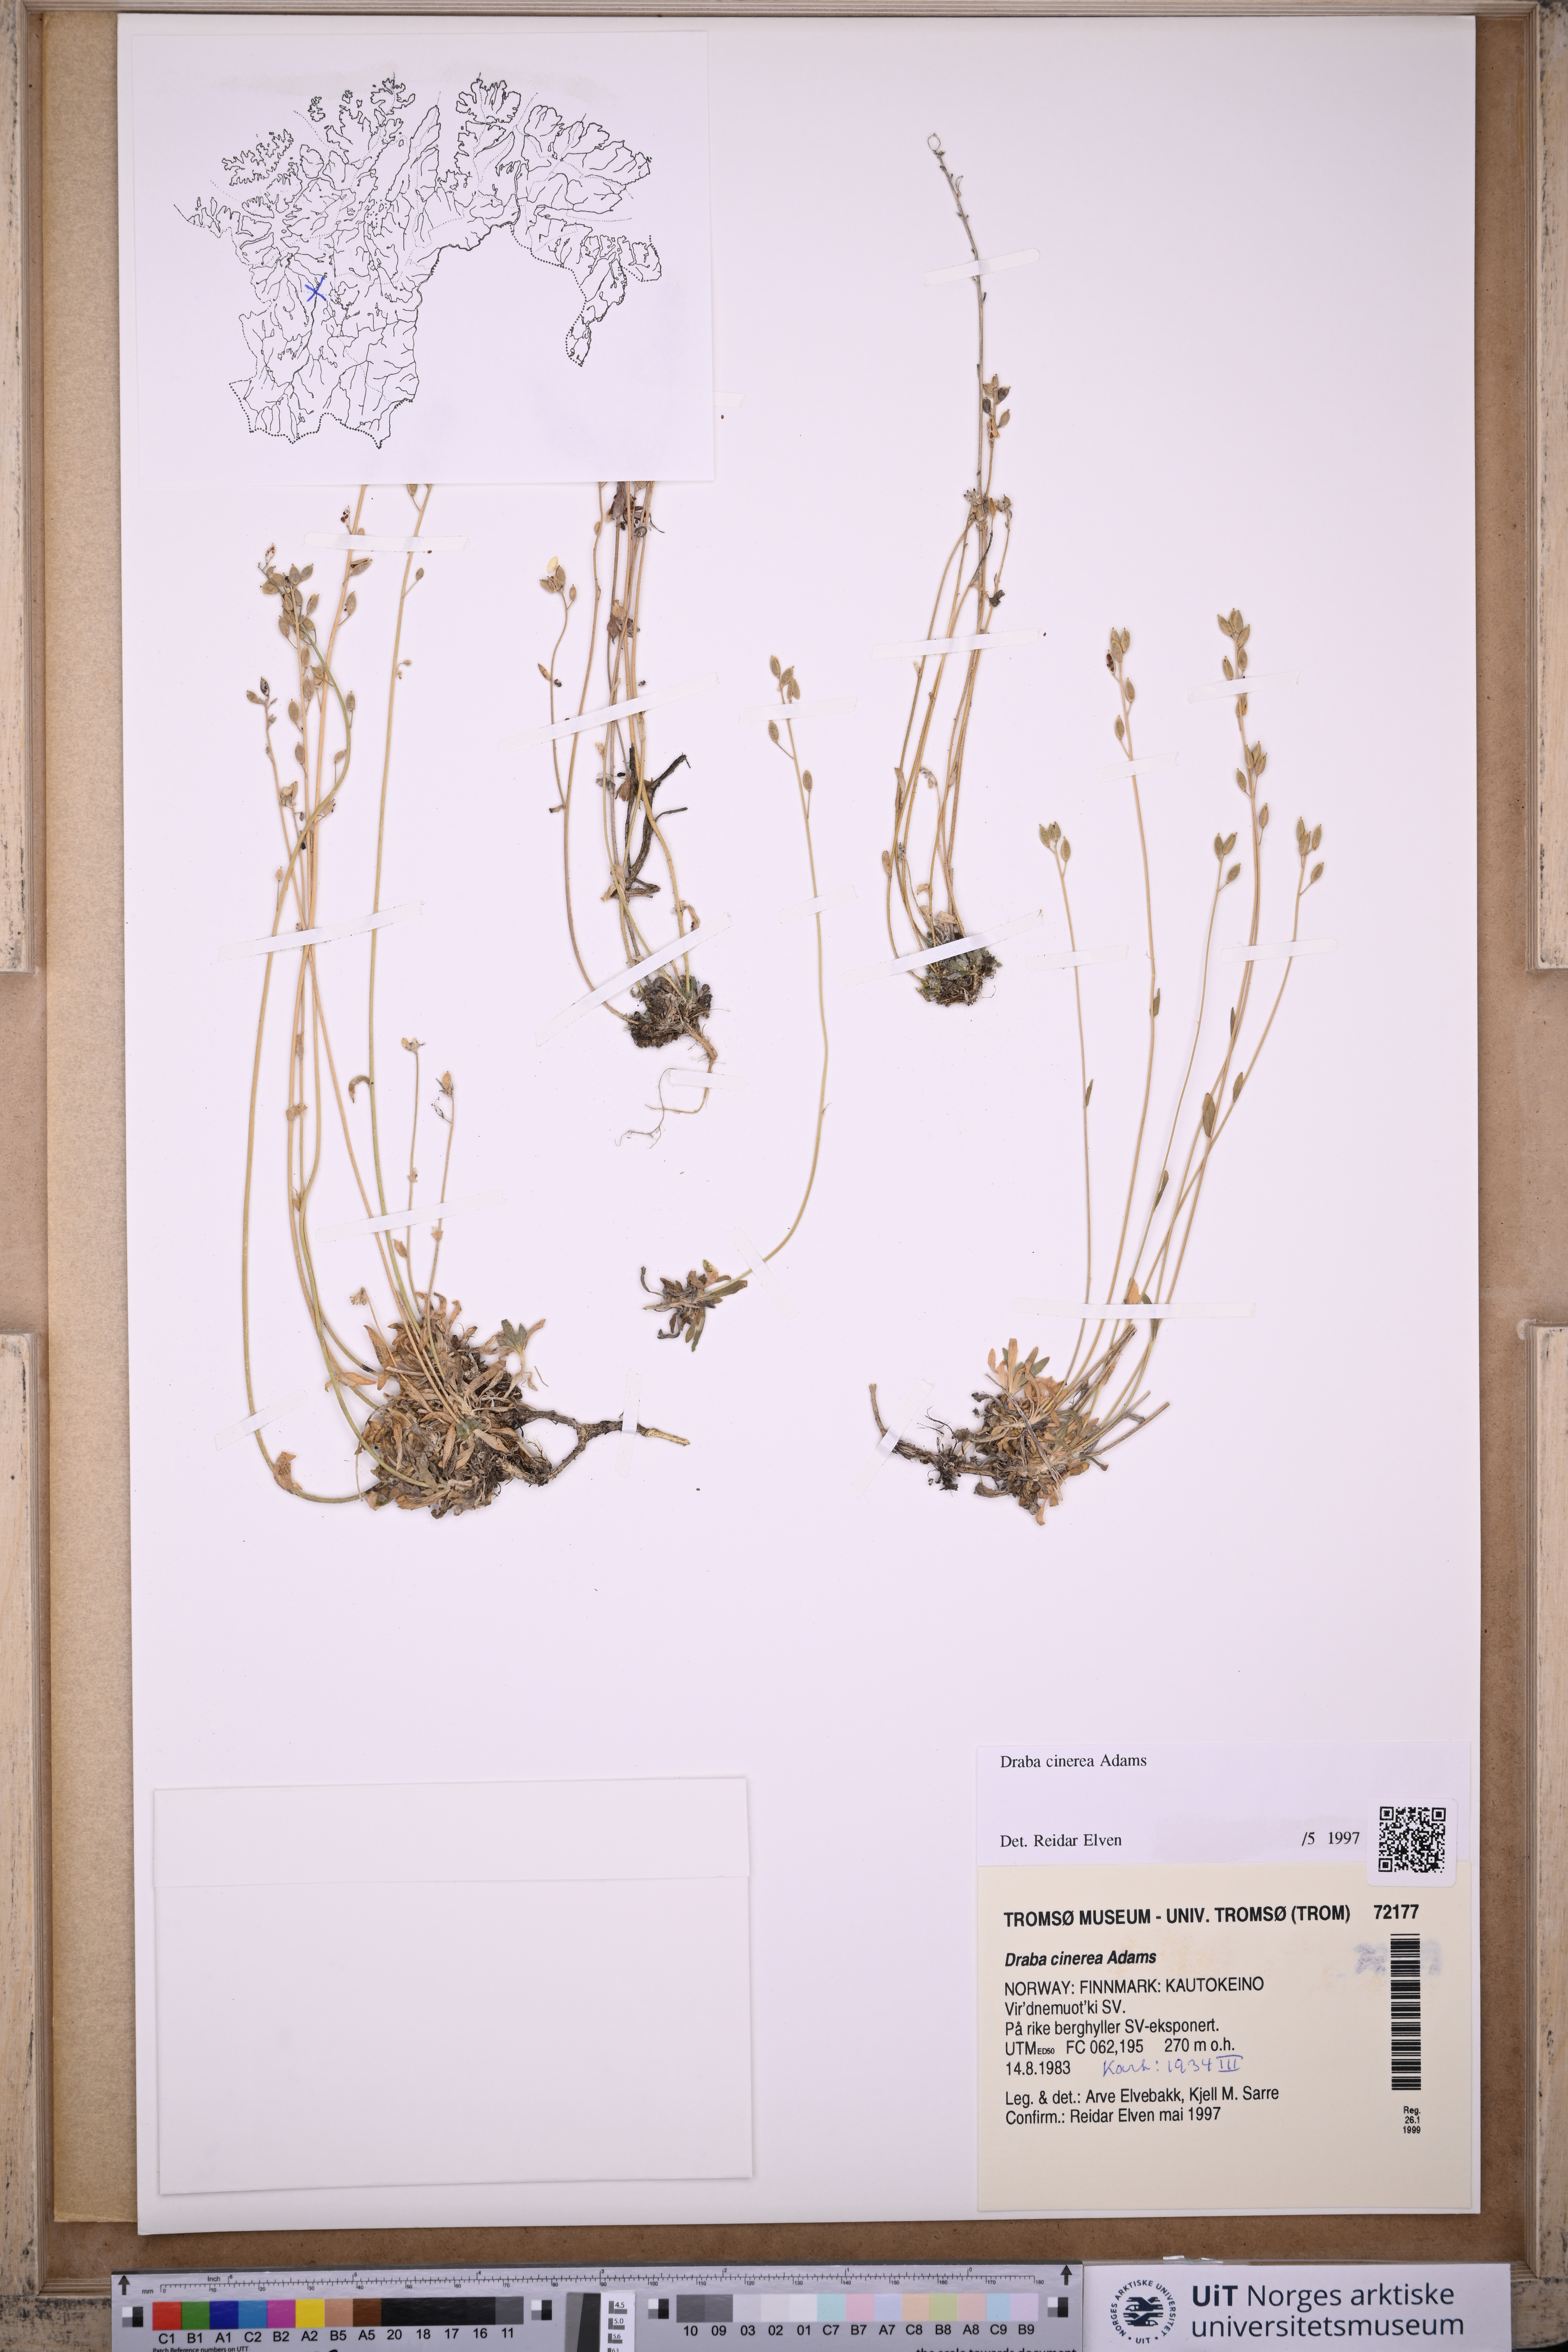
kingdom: Plantae
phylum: Tracheophyta
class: Magnoliopsida
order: Brassicales
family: Brassicaceae
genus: Draba
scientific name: Draba arctica
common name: Arctic draba
